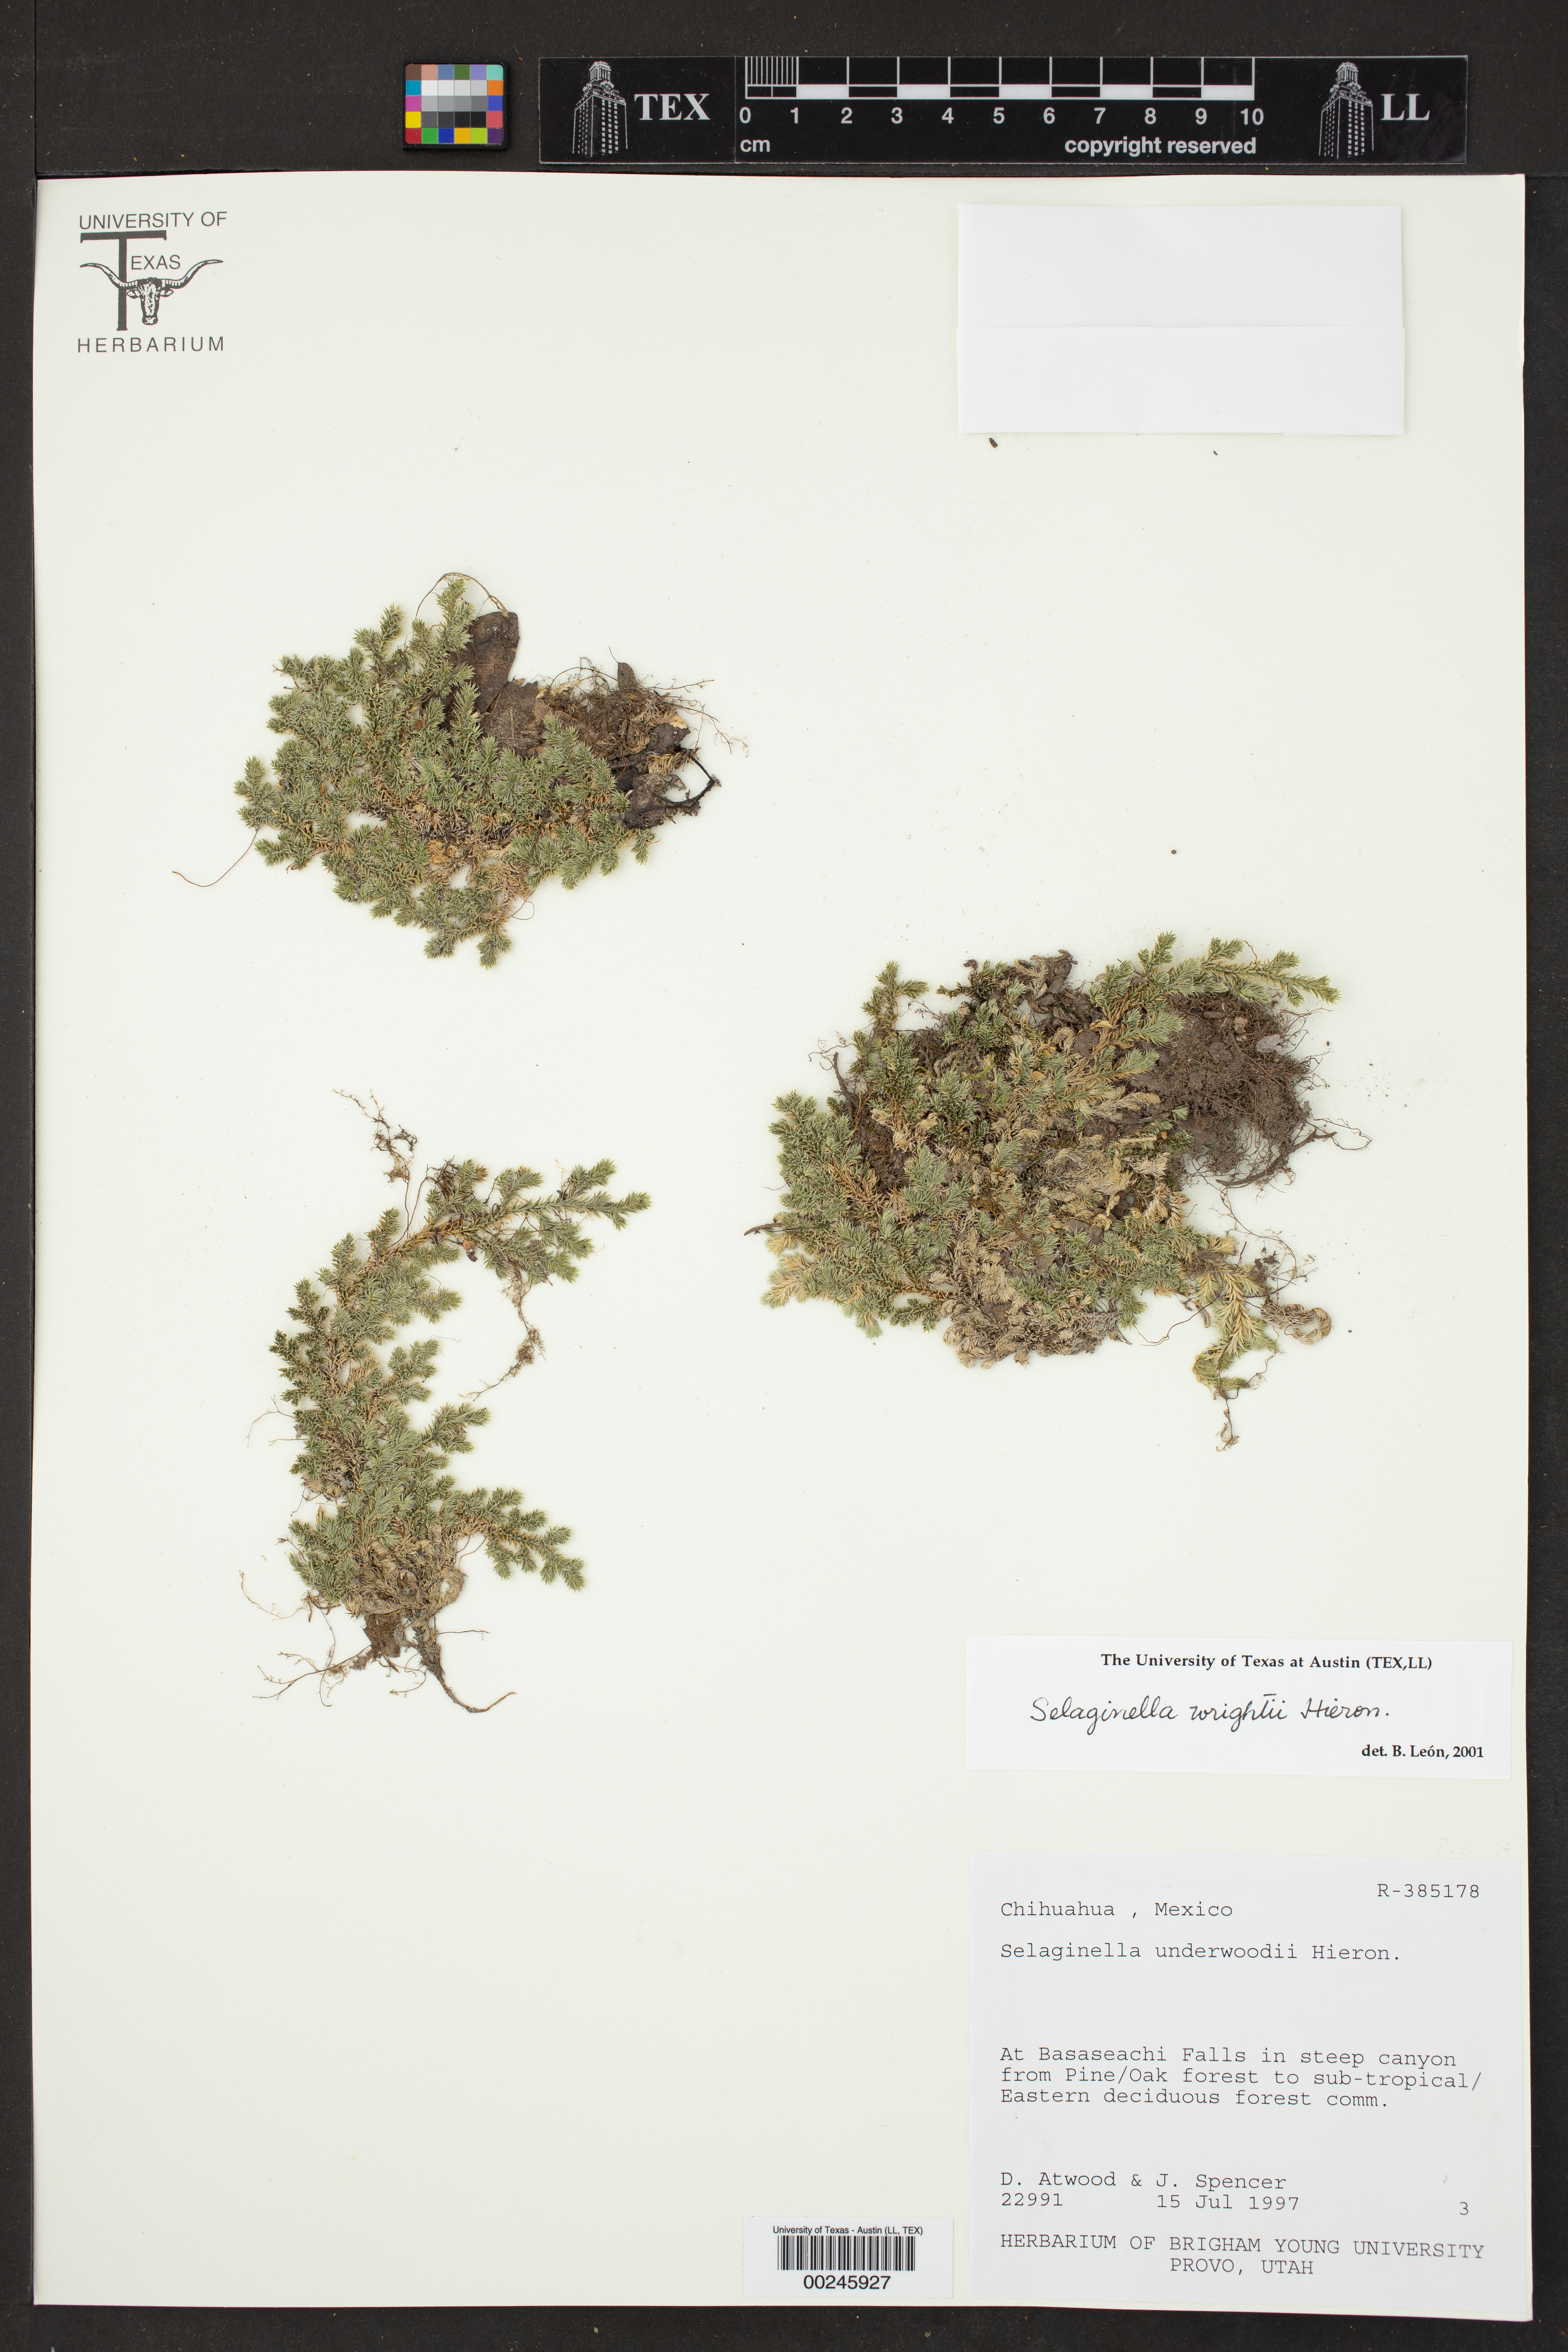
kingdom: Plantae
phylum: Tracheophyta
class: Lycopodiopsida
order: Selaginellales
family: Selaginellaceae
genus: Selaginella
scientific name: Selaginella wrightii
